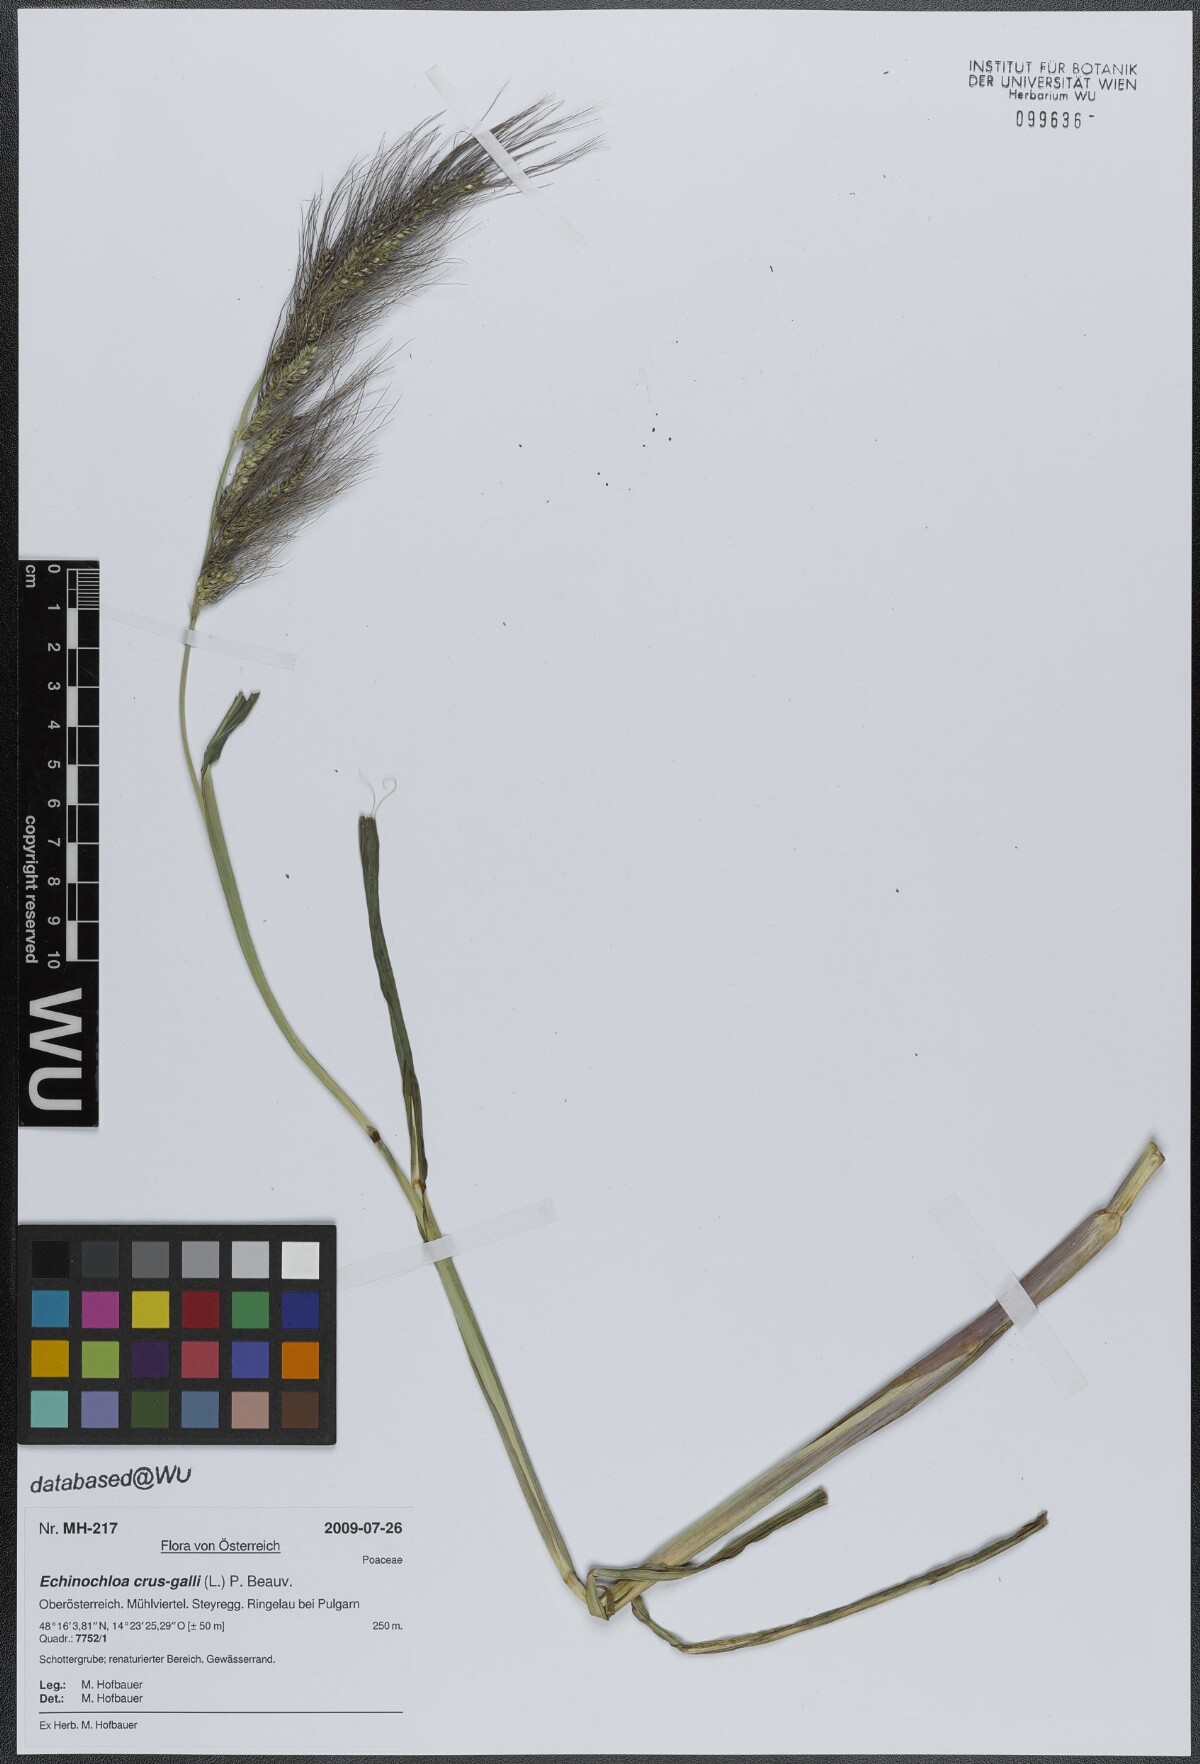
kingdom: Plantae
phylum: Tracheophyta
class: Liliopsida
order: Poales
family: Poaceae
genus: Echinochloa
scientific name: Echinochloa crus-galli
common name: Cockspur
